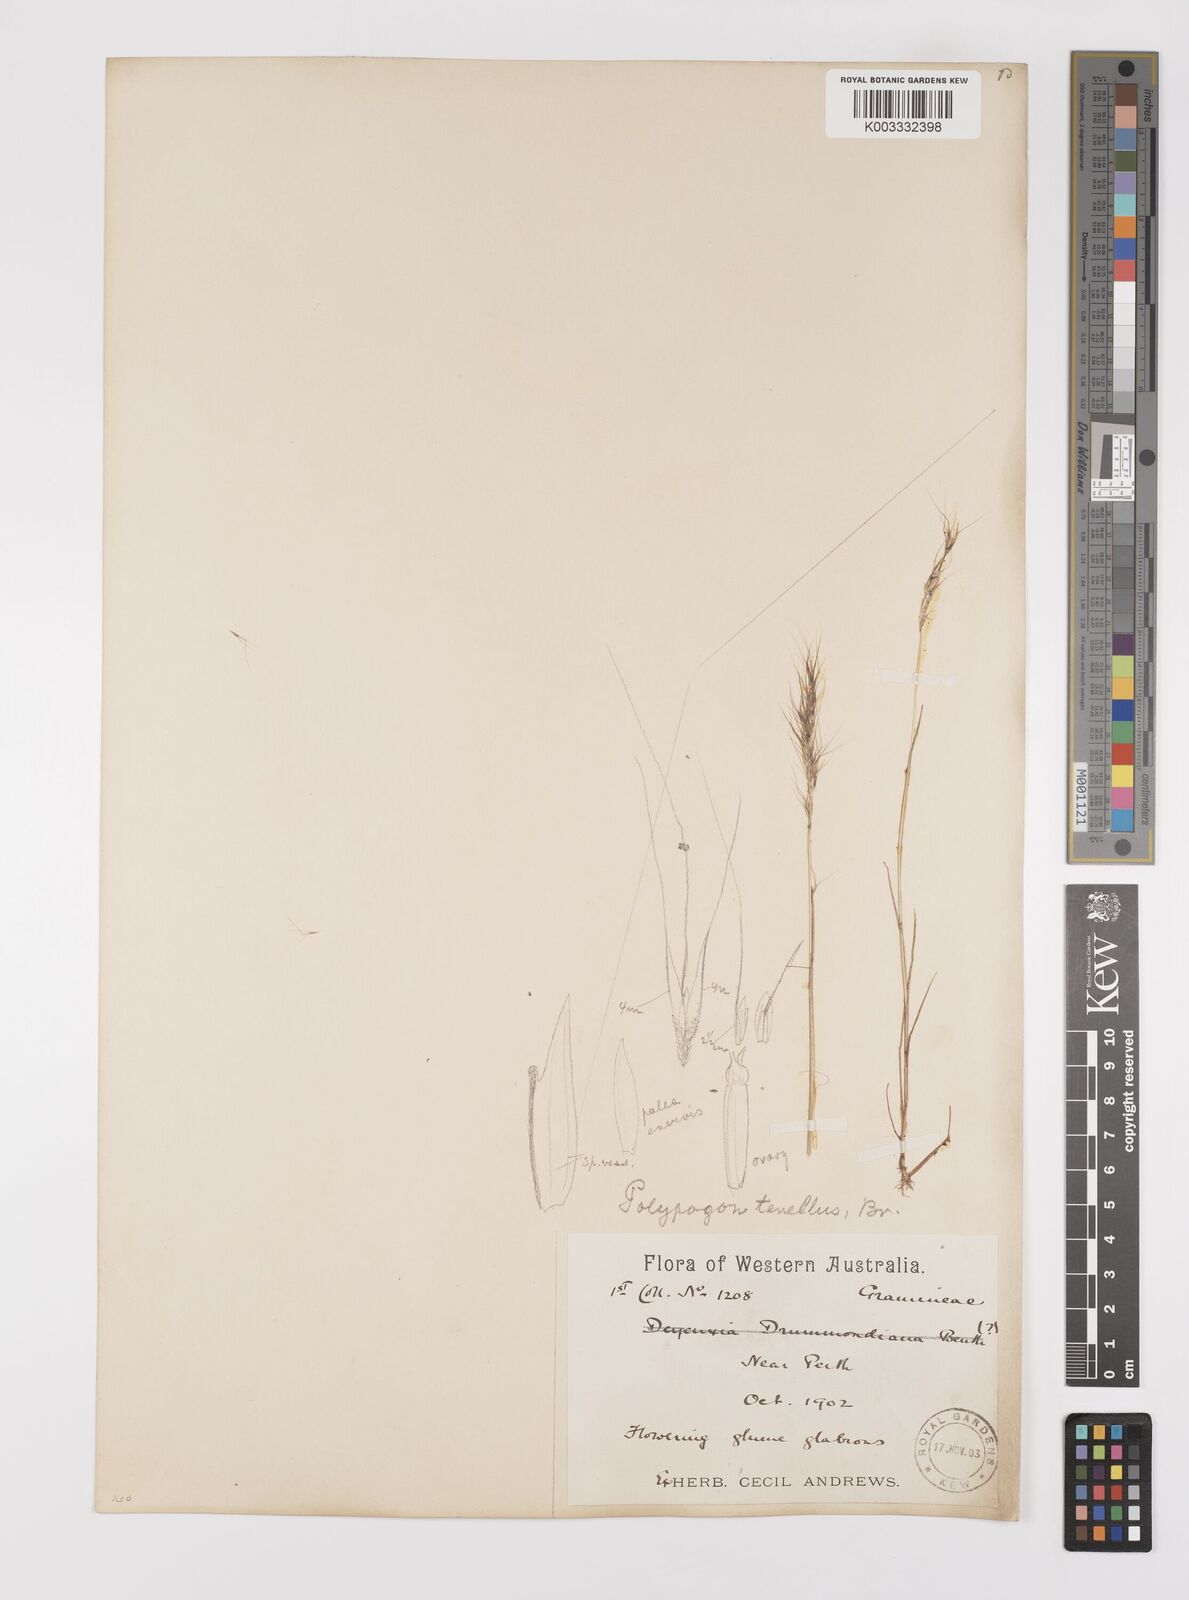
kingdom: Plantae
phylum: Tracheophyta
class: Liliopsida
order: Poales
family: Poaceae
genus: Polypogon
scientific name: Polypogon tenellus
